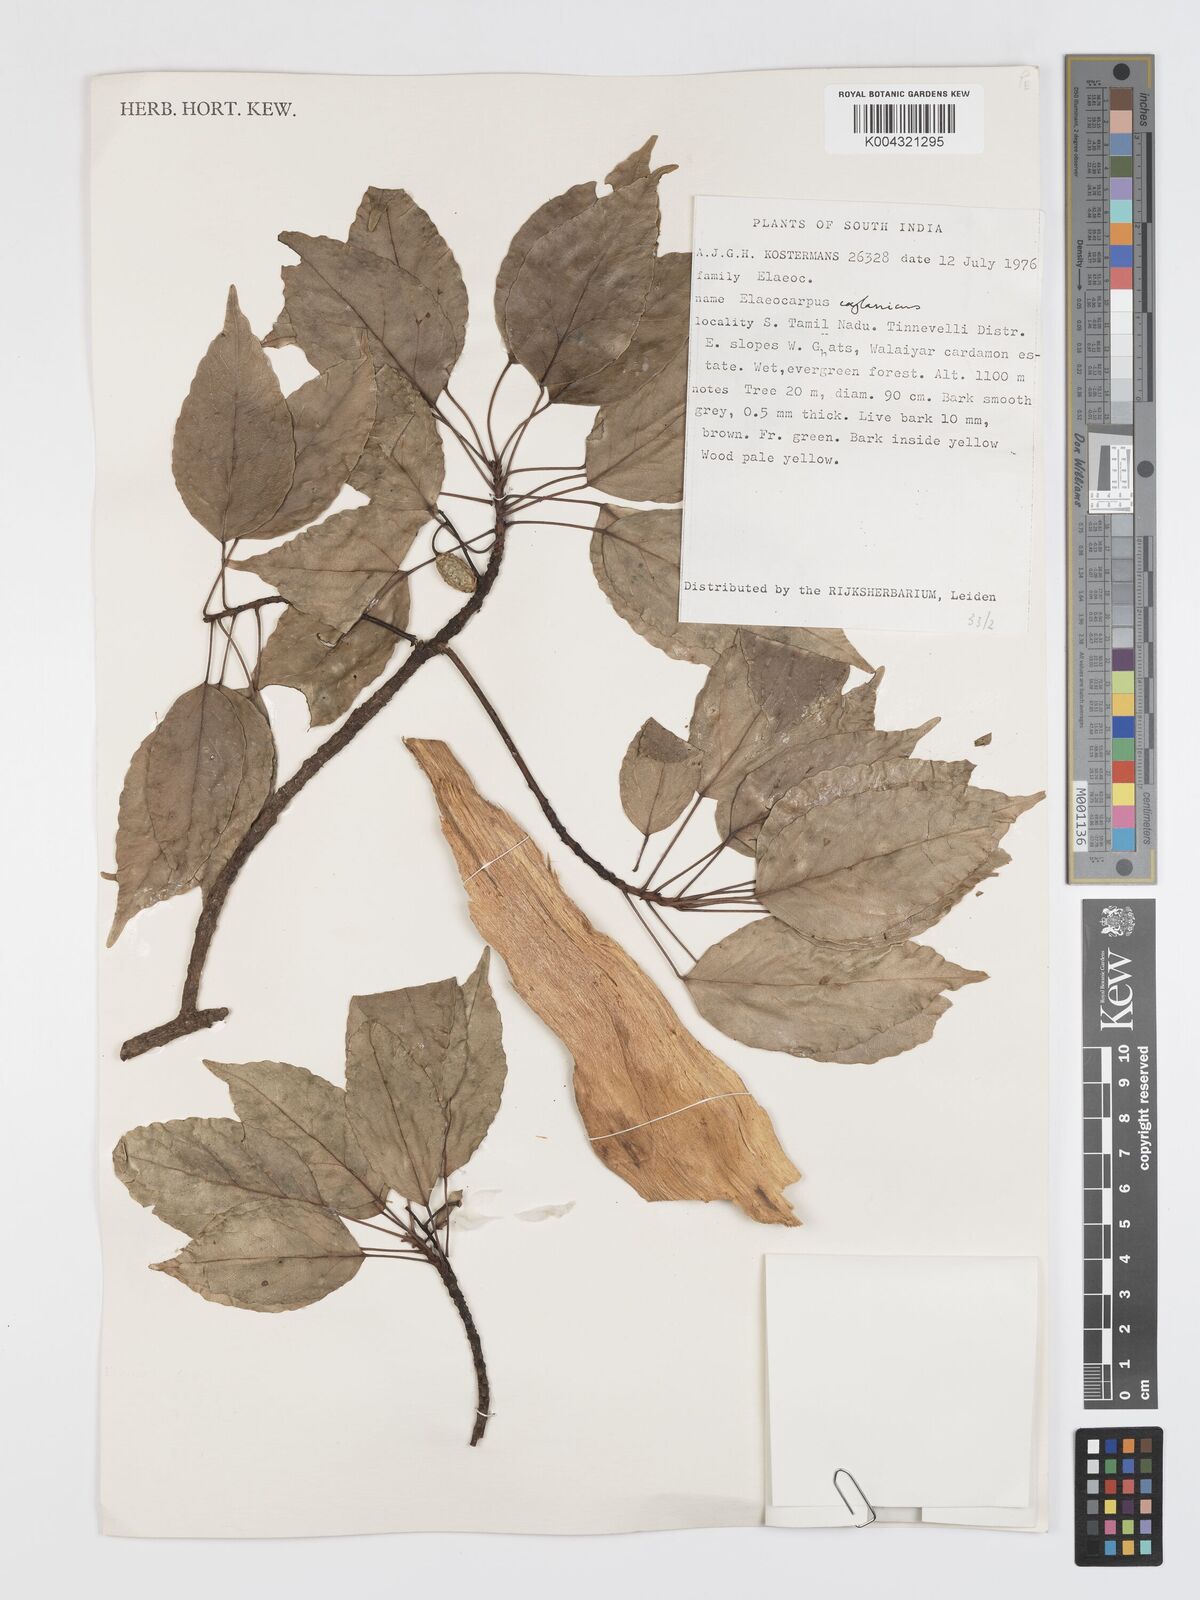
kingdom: Plantae
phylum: Tracheophyta
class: Magnoliopsida
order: Oxalidales
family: Elaeocarpaceae
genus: Elaeocarpus
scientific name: Elaeocarpus ceylanicus
